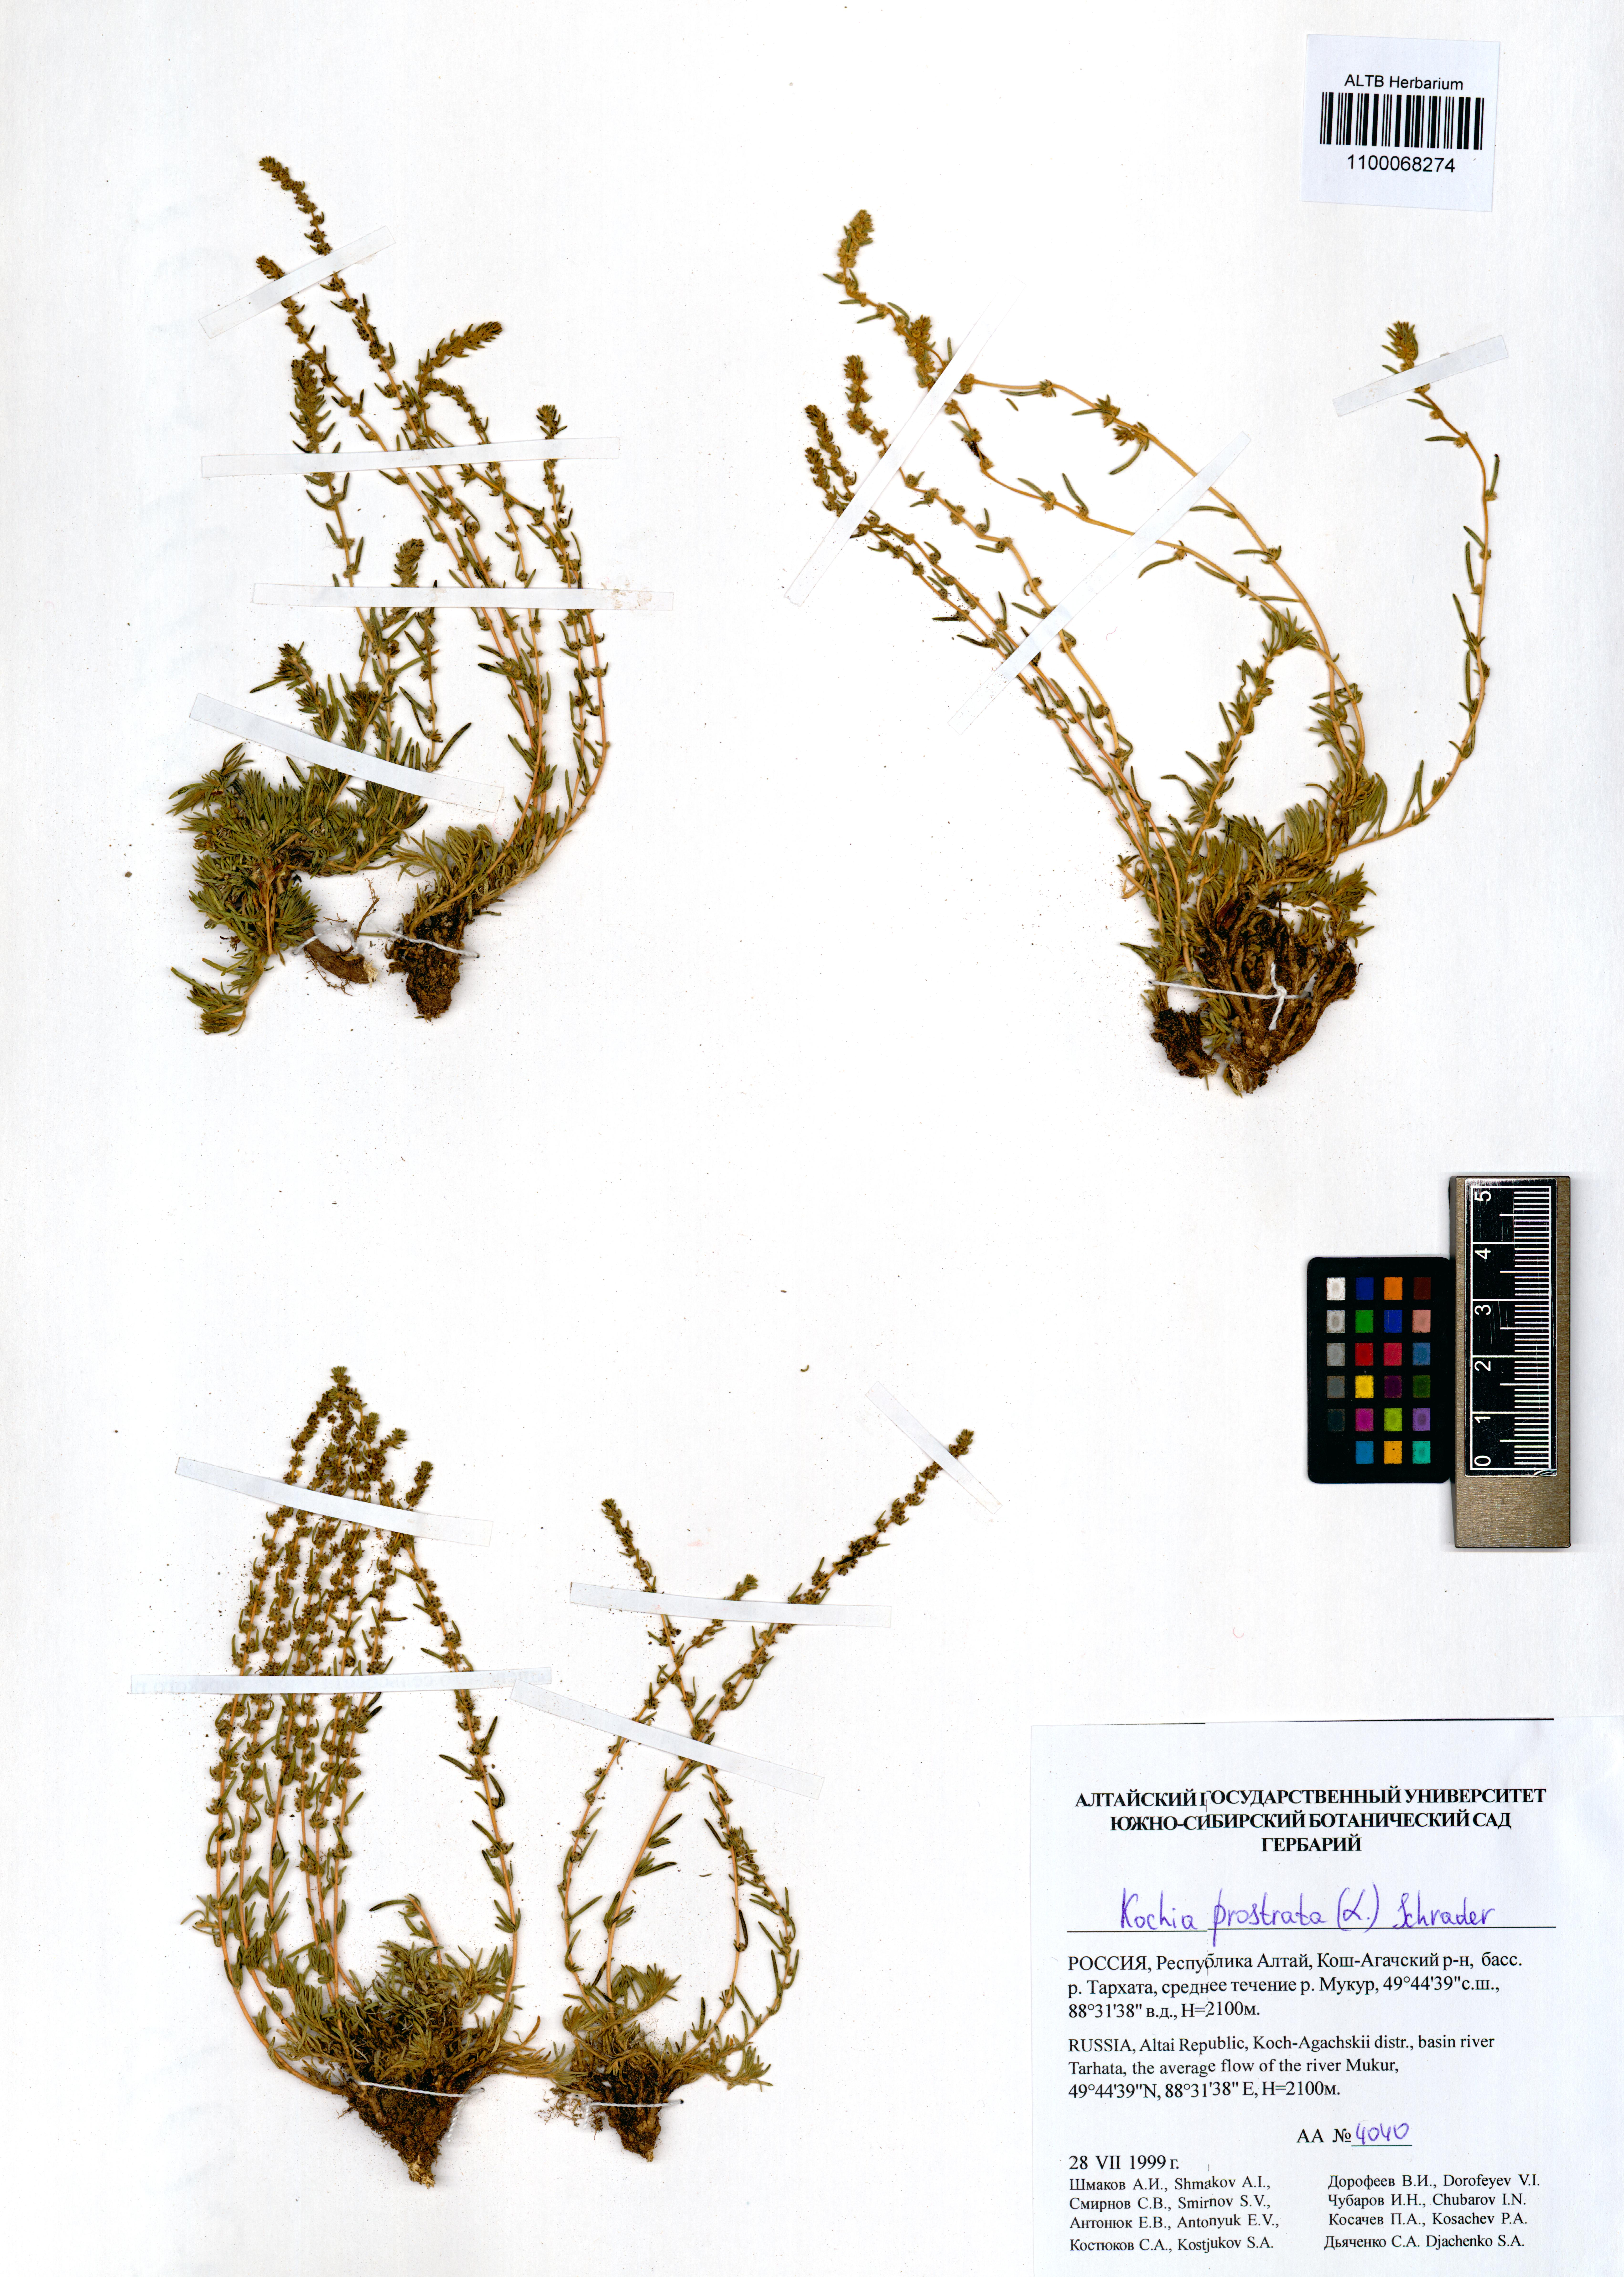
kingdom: Plantae
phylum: Tracheophyta
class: Magnoliopsida
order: Caryophyllales
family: Amaranthaceae
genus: Bassia
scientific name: Bassia prostrata
